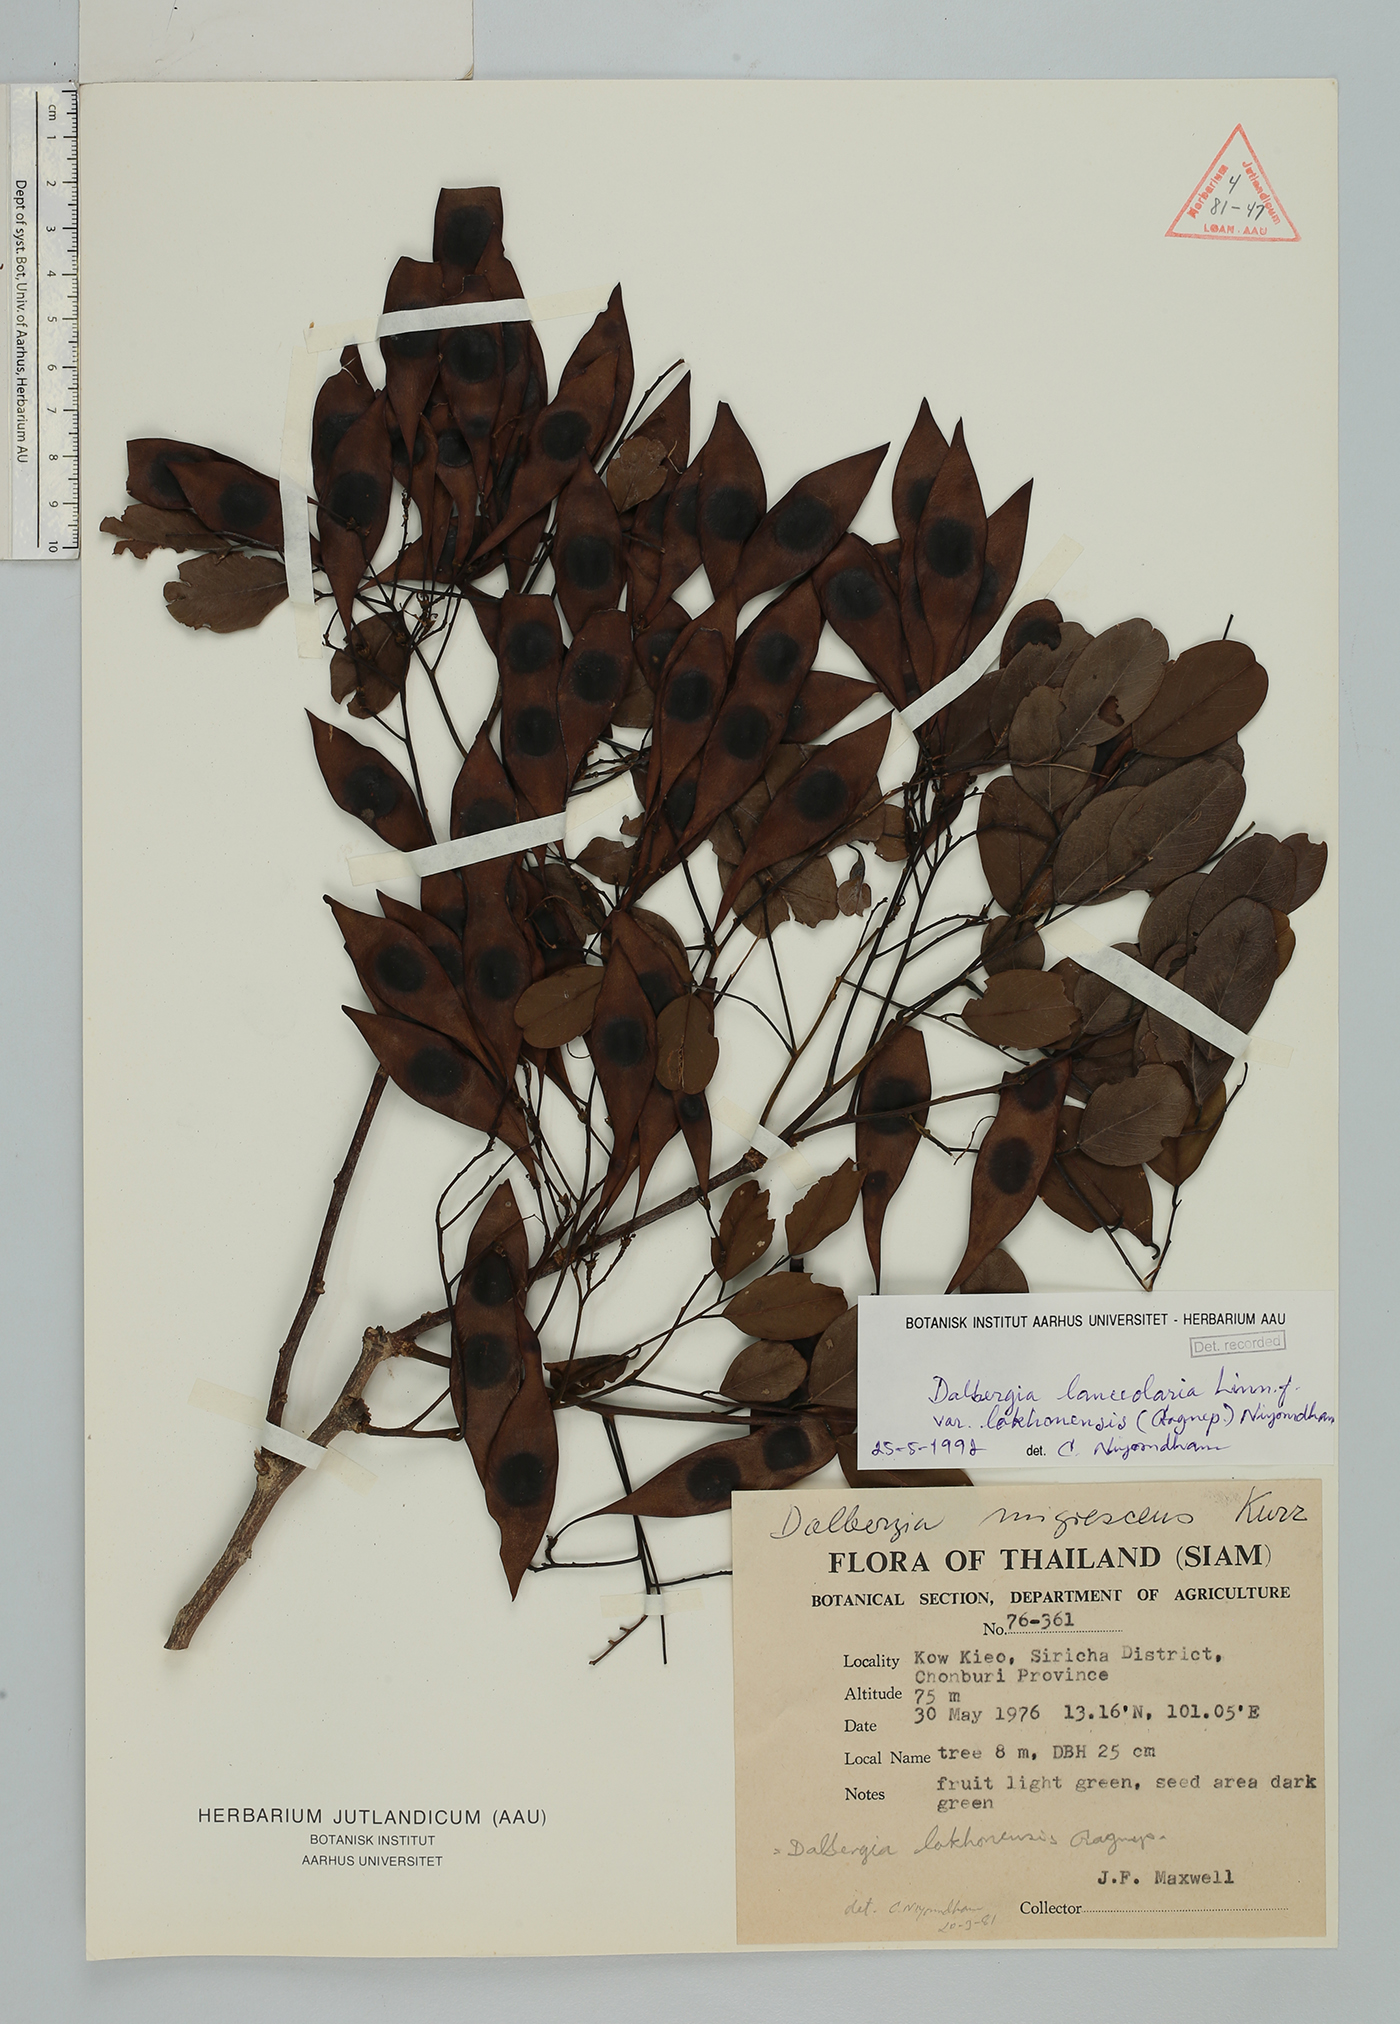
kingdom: Plantae
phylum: Tracheophyta
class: Magnoliopsida
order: Fabales
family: Fabaceae
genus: Dalbergia
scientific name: Dalbergia lanceolaria
